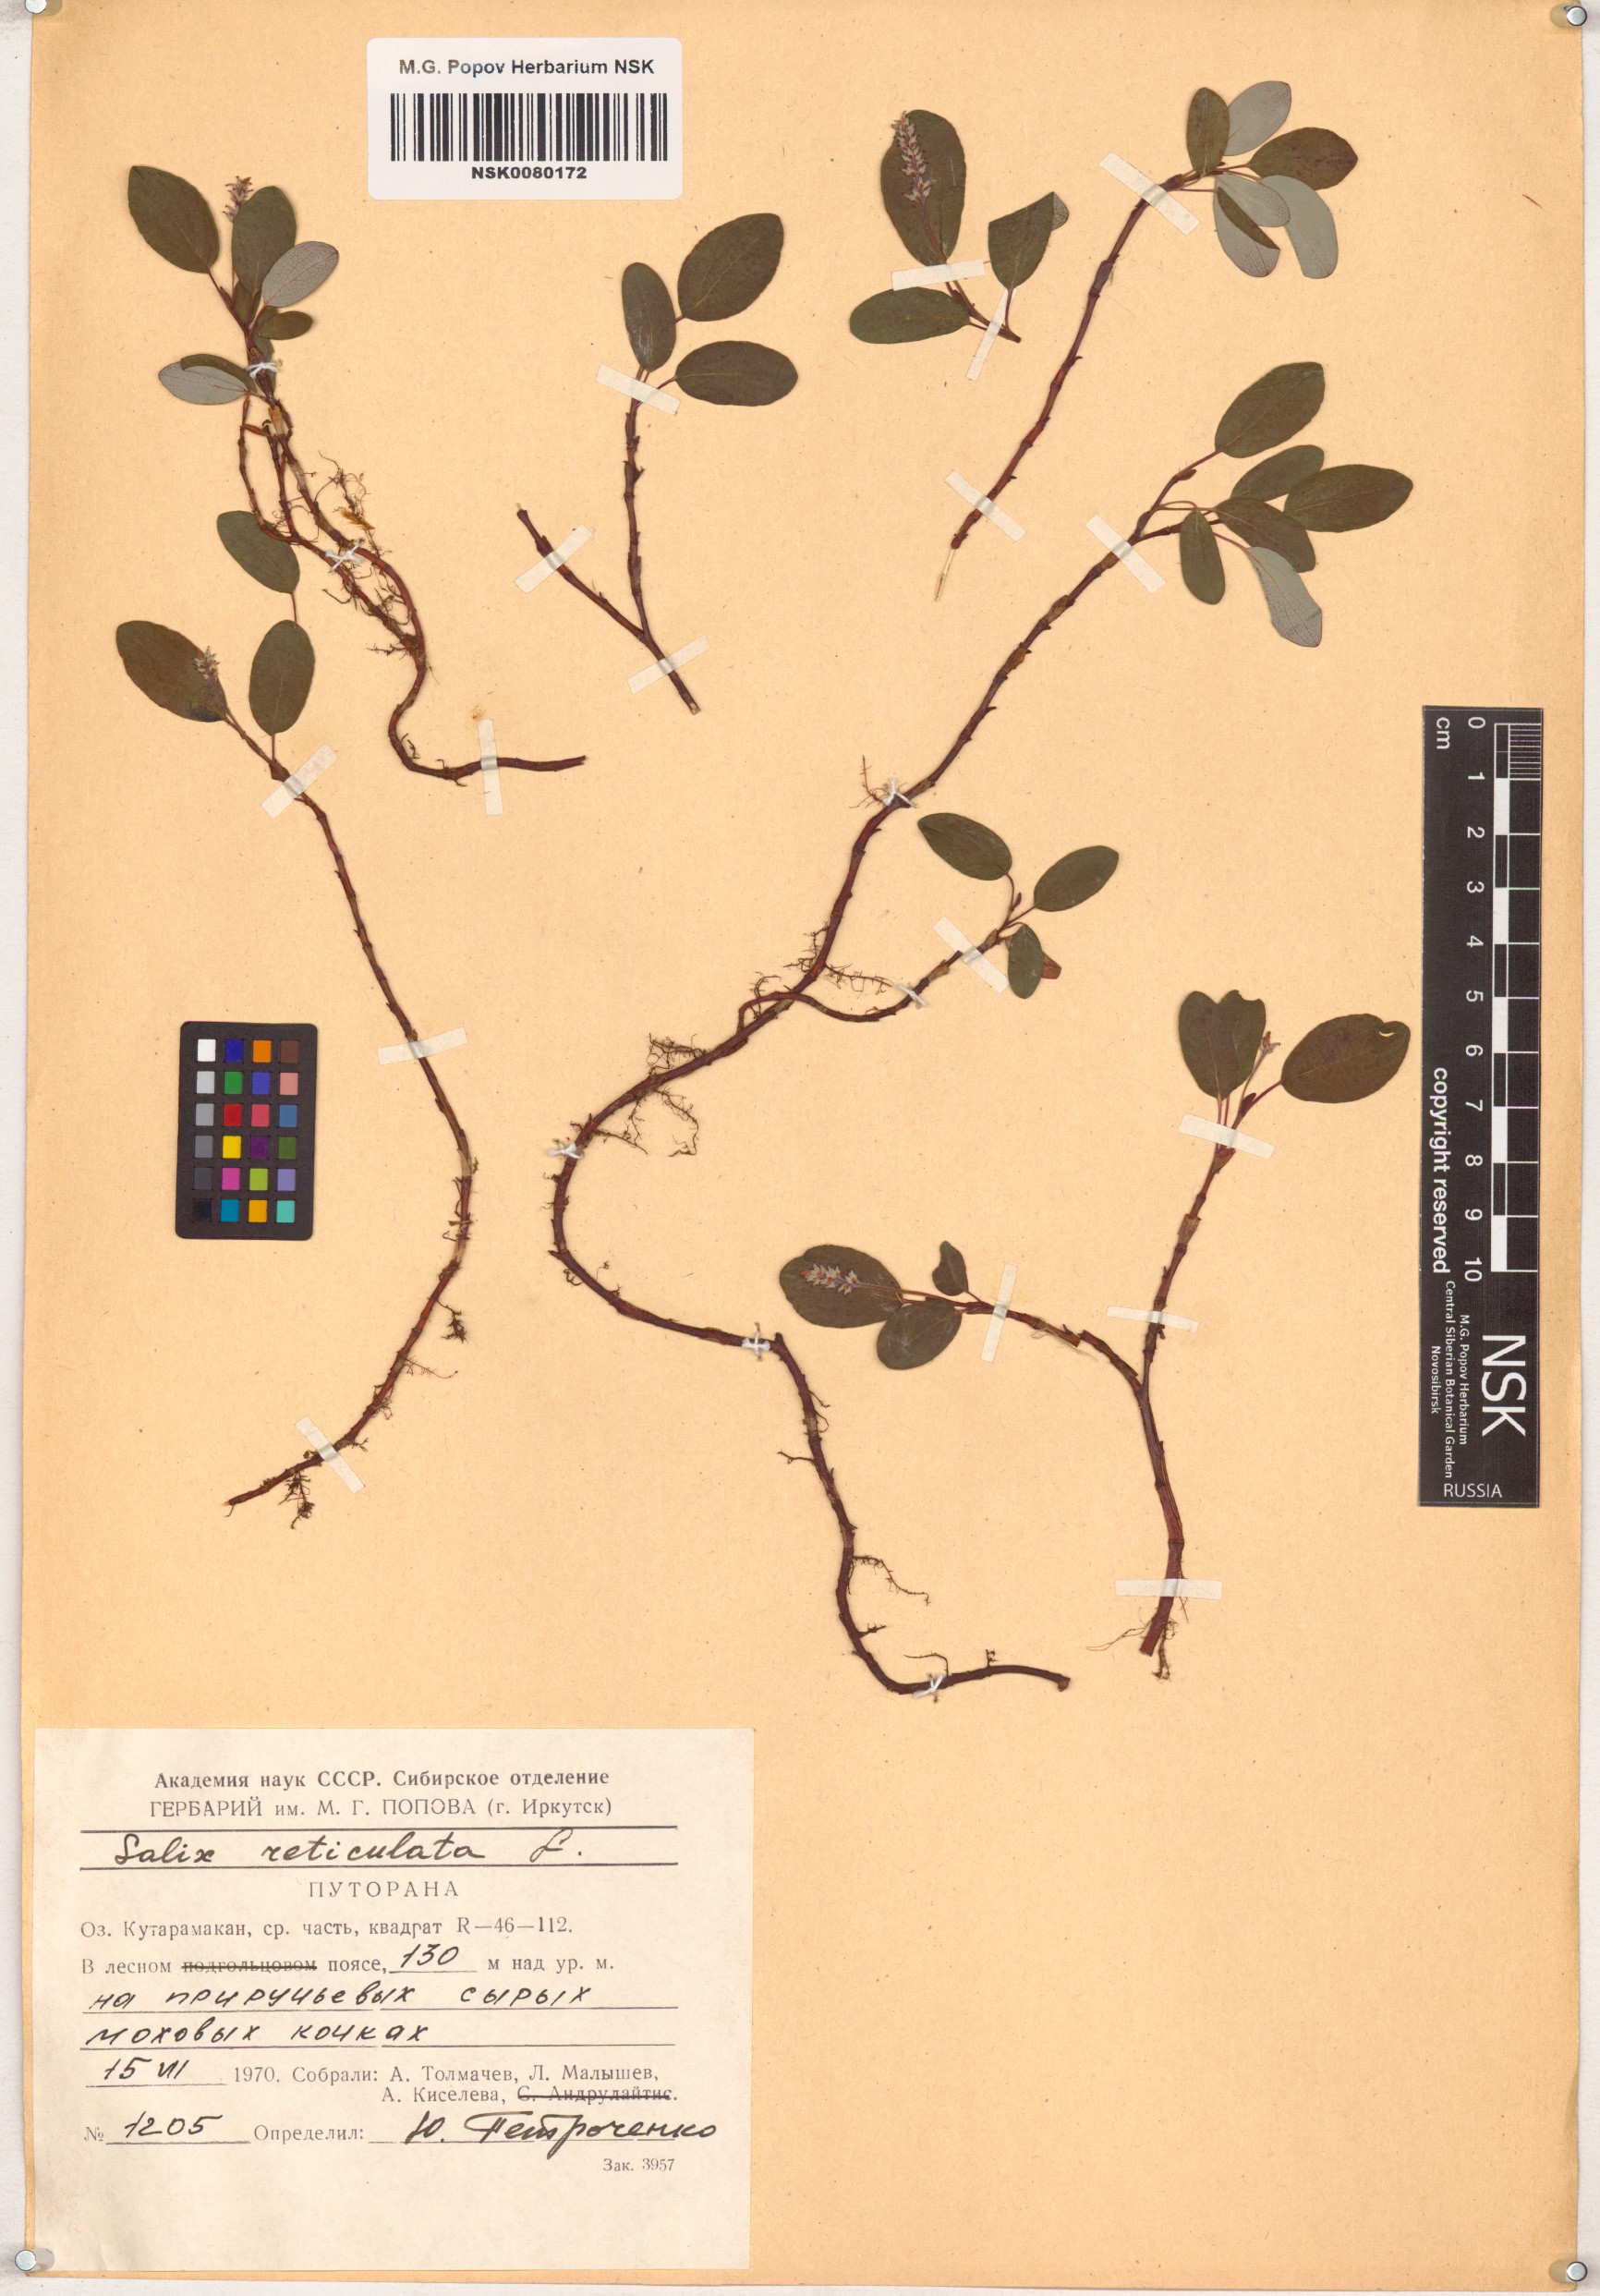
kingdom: Plantae
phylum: Tracheophyta
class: Magnoliopsida
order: Malpighiales
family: Salicaceae
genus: Salix
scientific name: Salix reticulata
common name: Net-leaved willow
